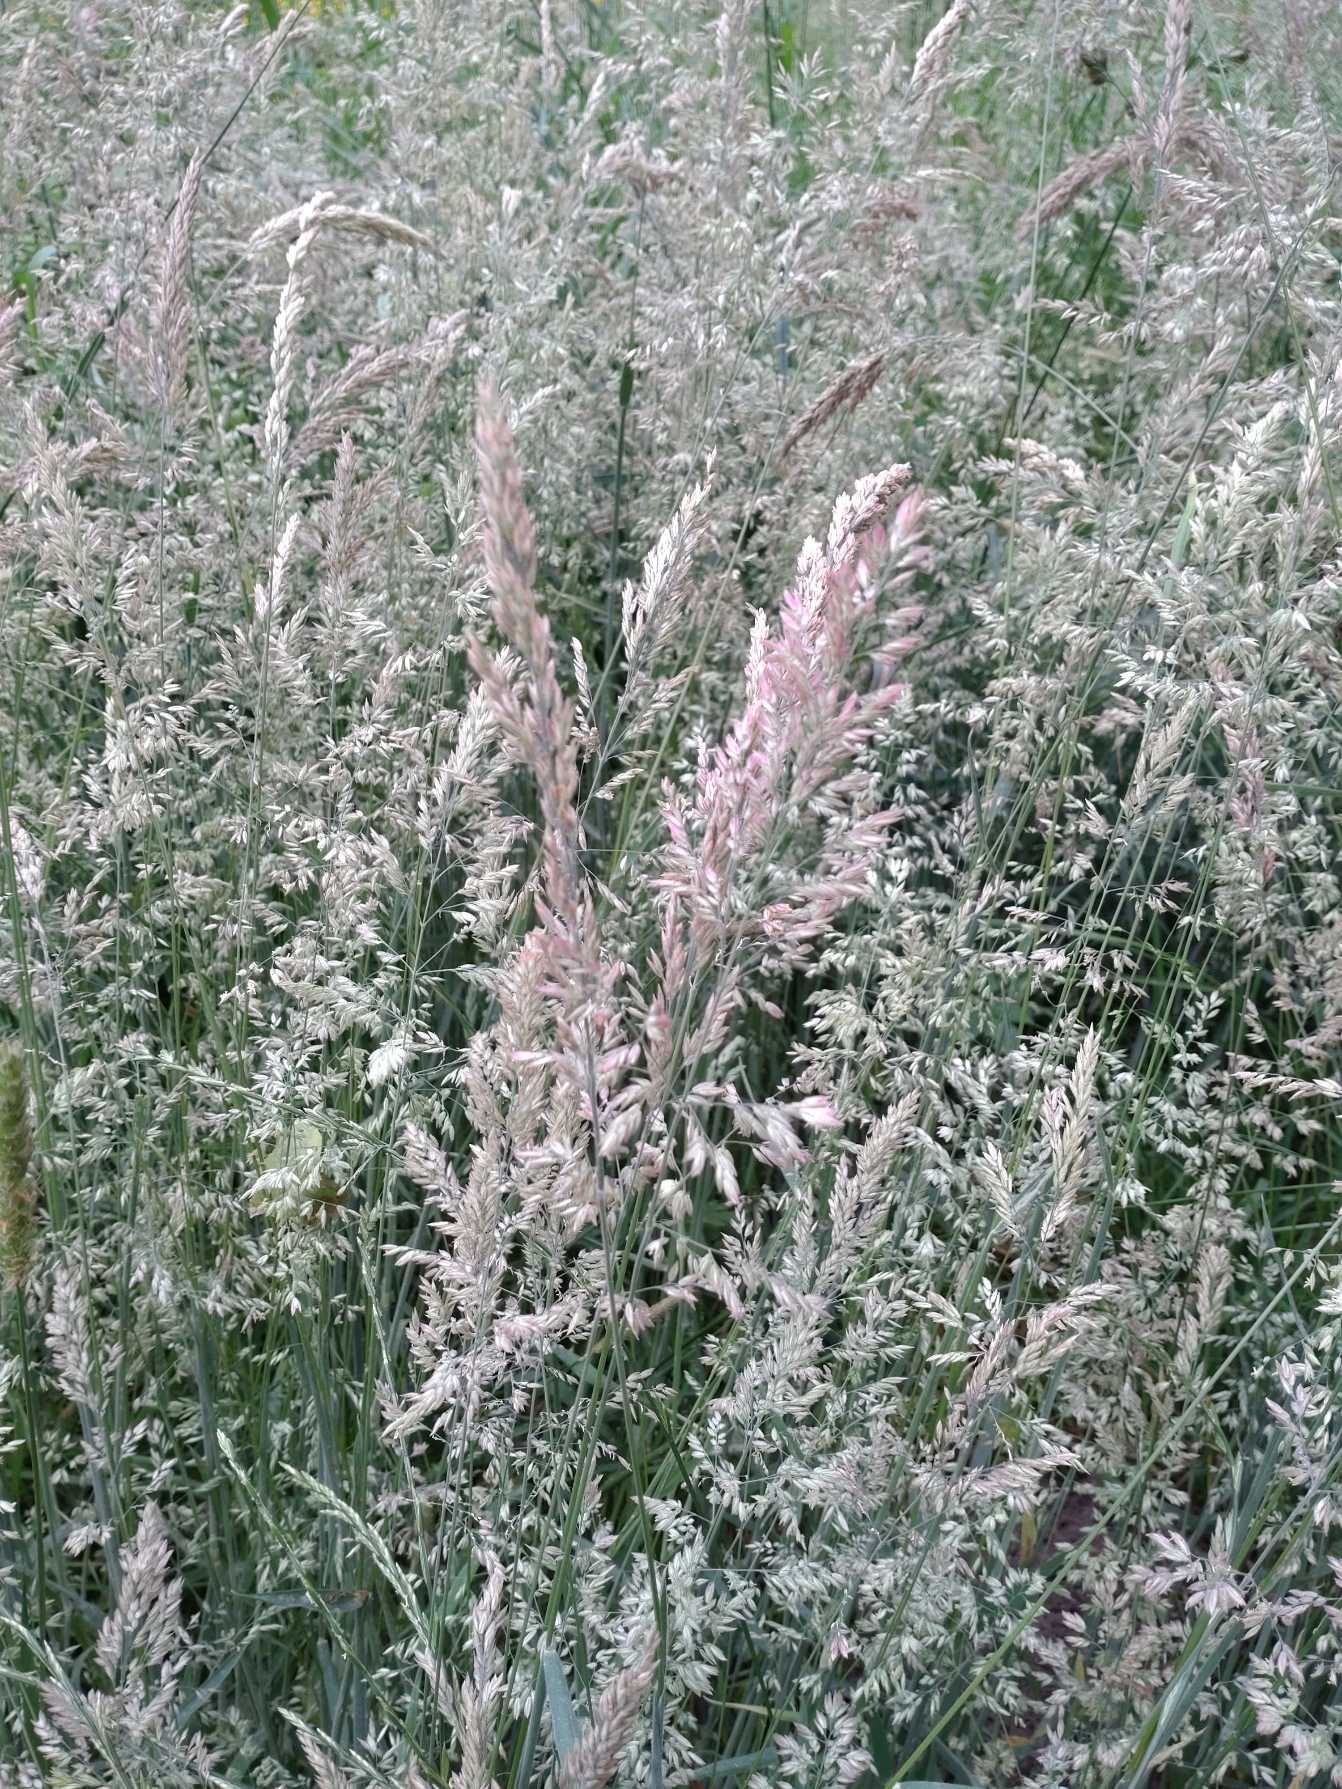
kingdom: Plantae
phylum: Tracheophyta
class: Liliopsida
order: Poales
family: Poaceae
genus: Holcus
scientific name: Holcus lanatus
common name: Fløjlsgræs
